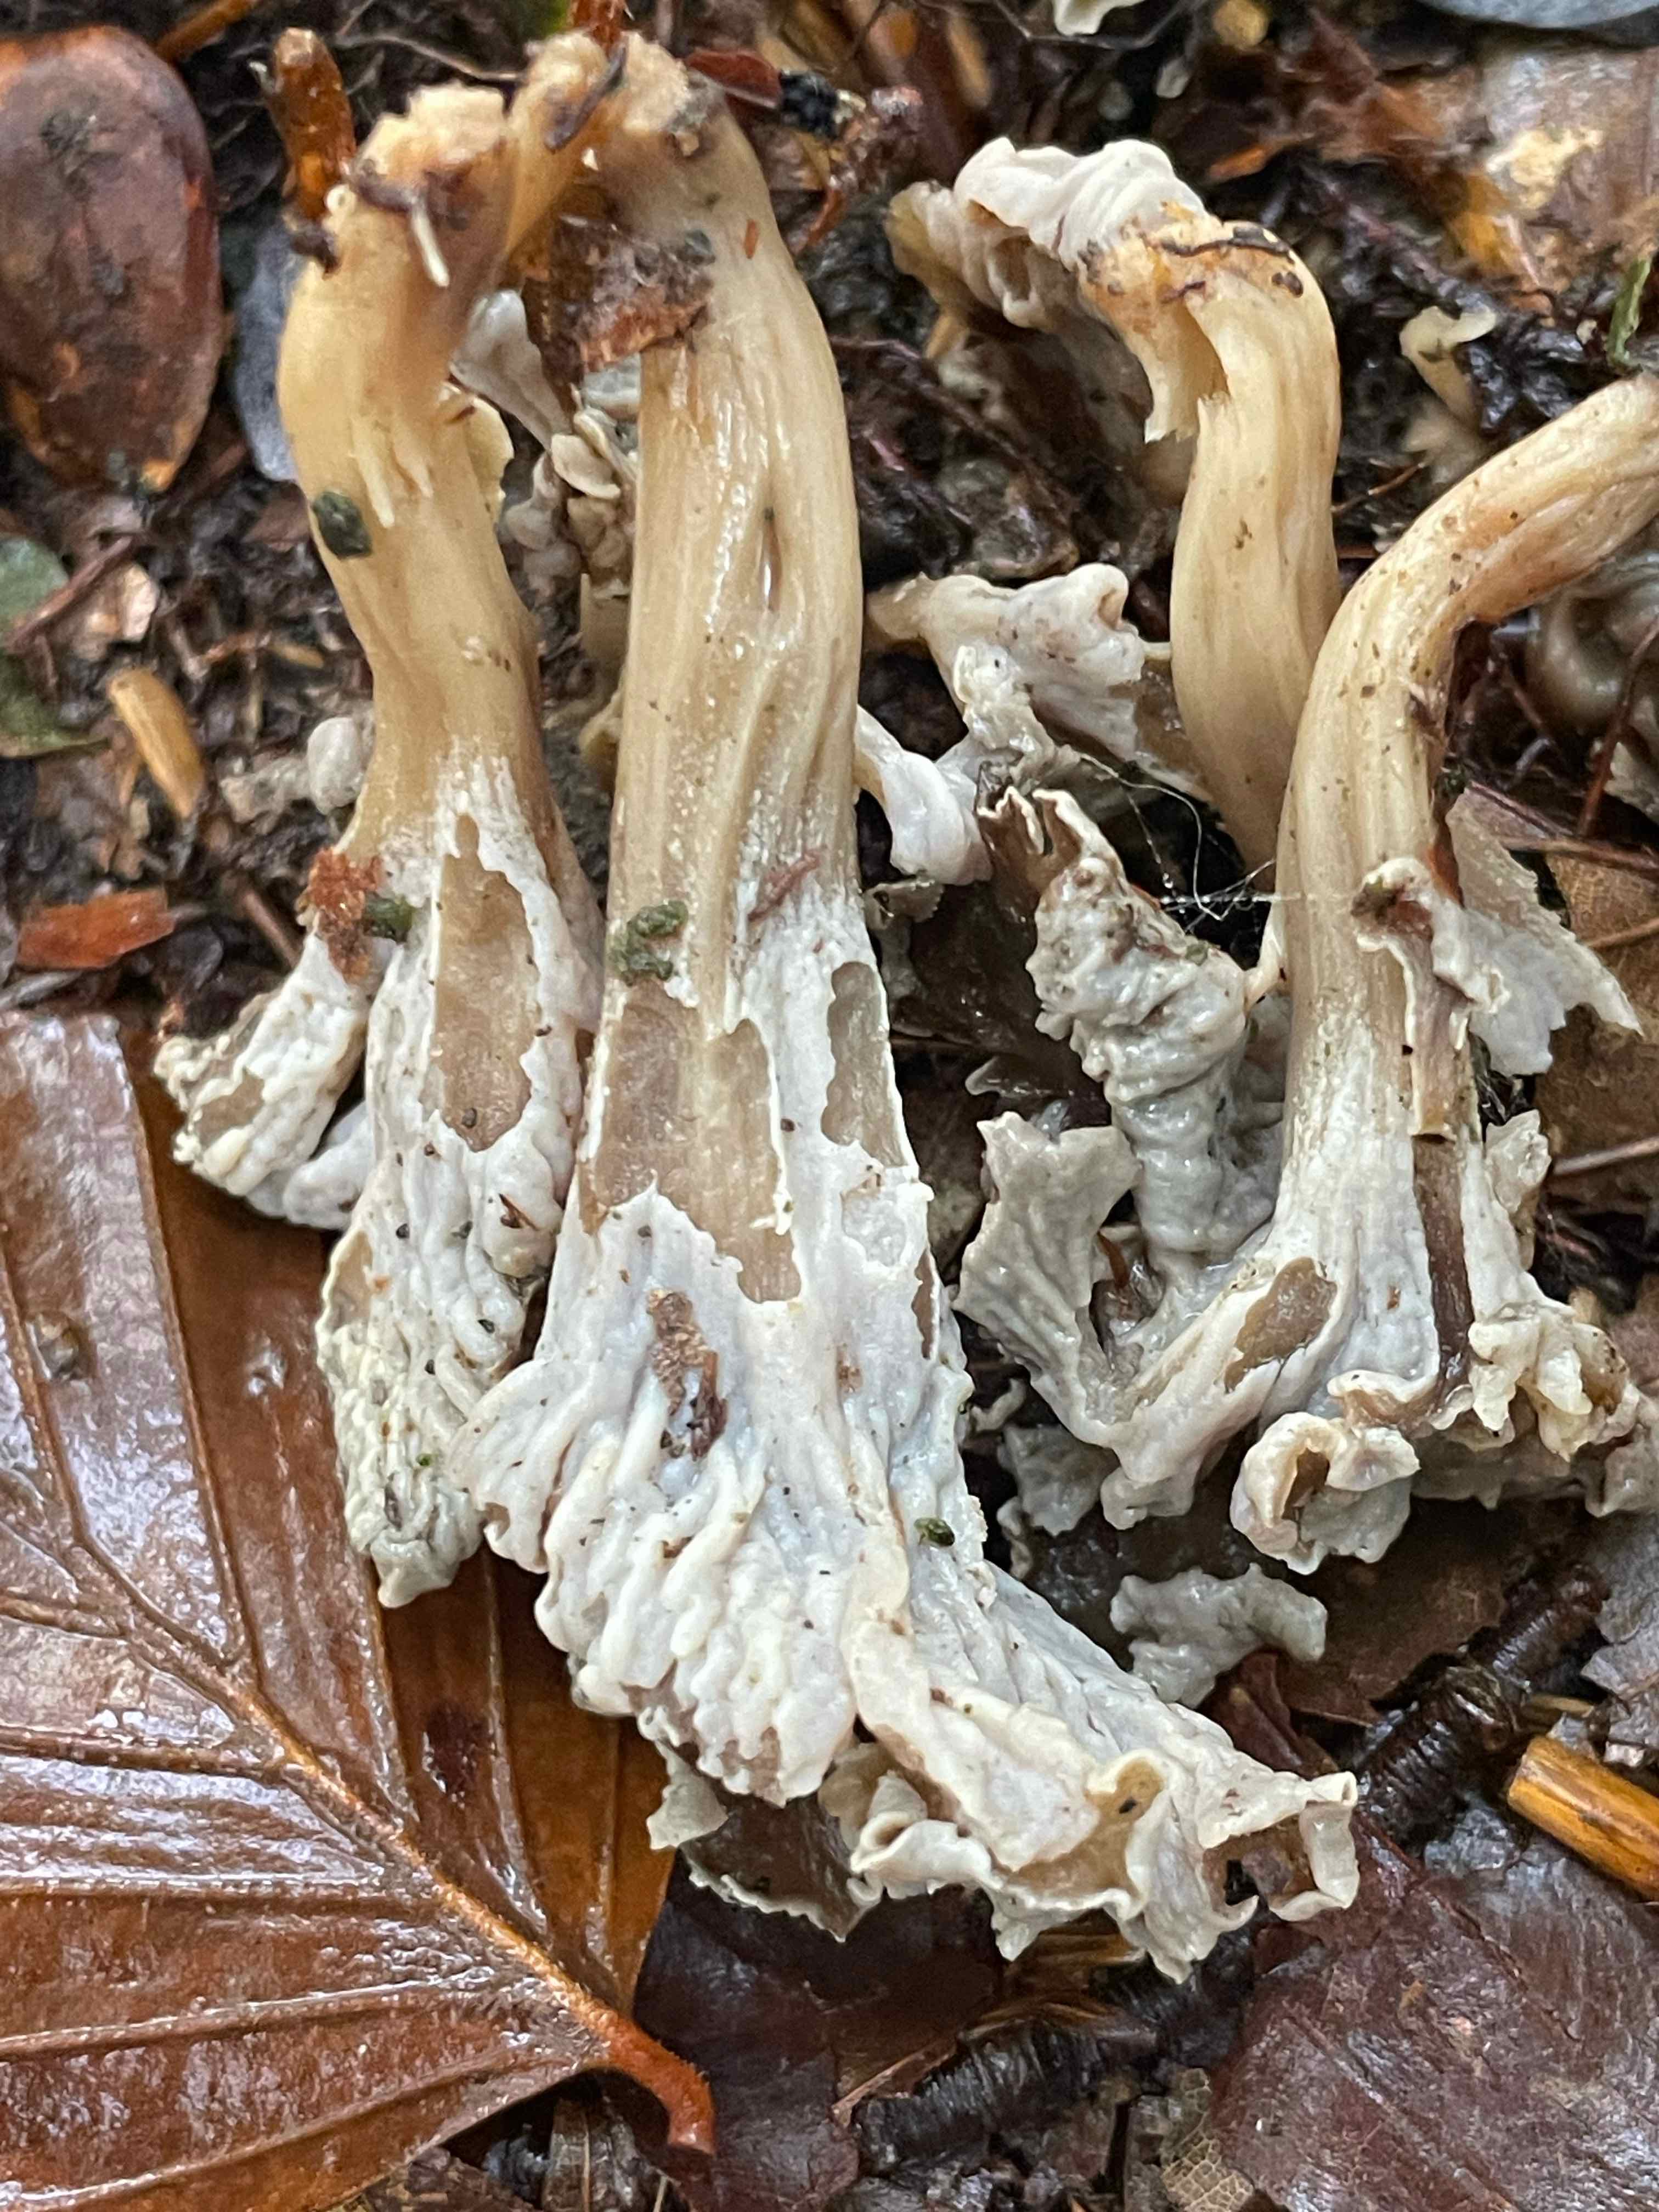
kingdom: Fungi
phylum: Basidiomycota
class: Agaricomycetes
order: Cantharellales
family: Hydnaceae
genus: Craterellus
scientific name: Craterellus undulatus
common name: liden kantarel
